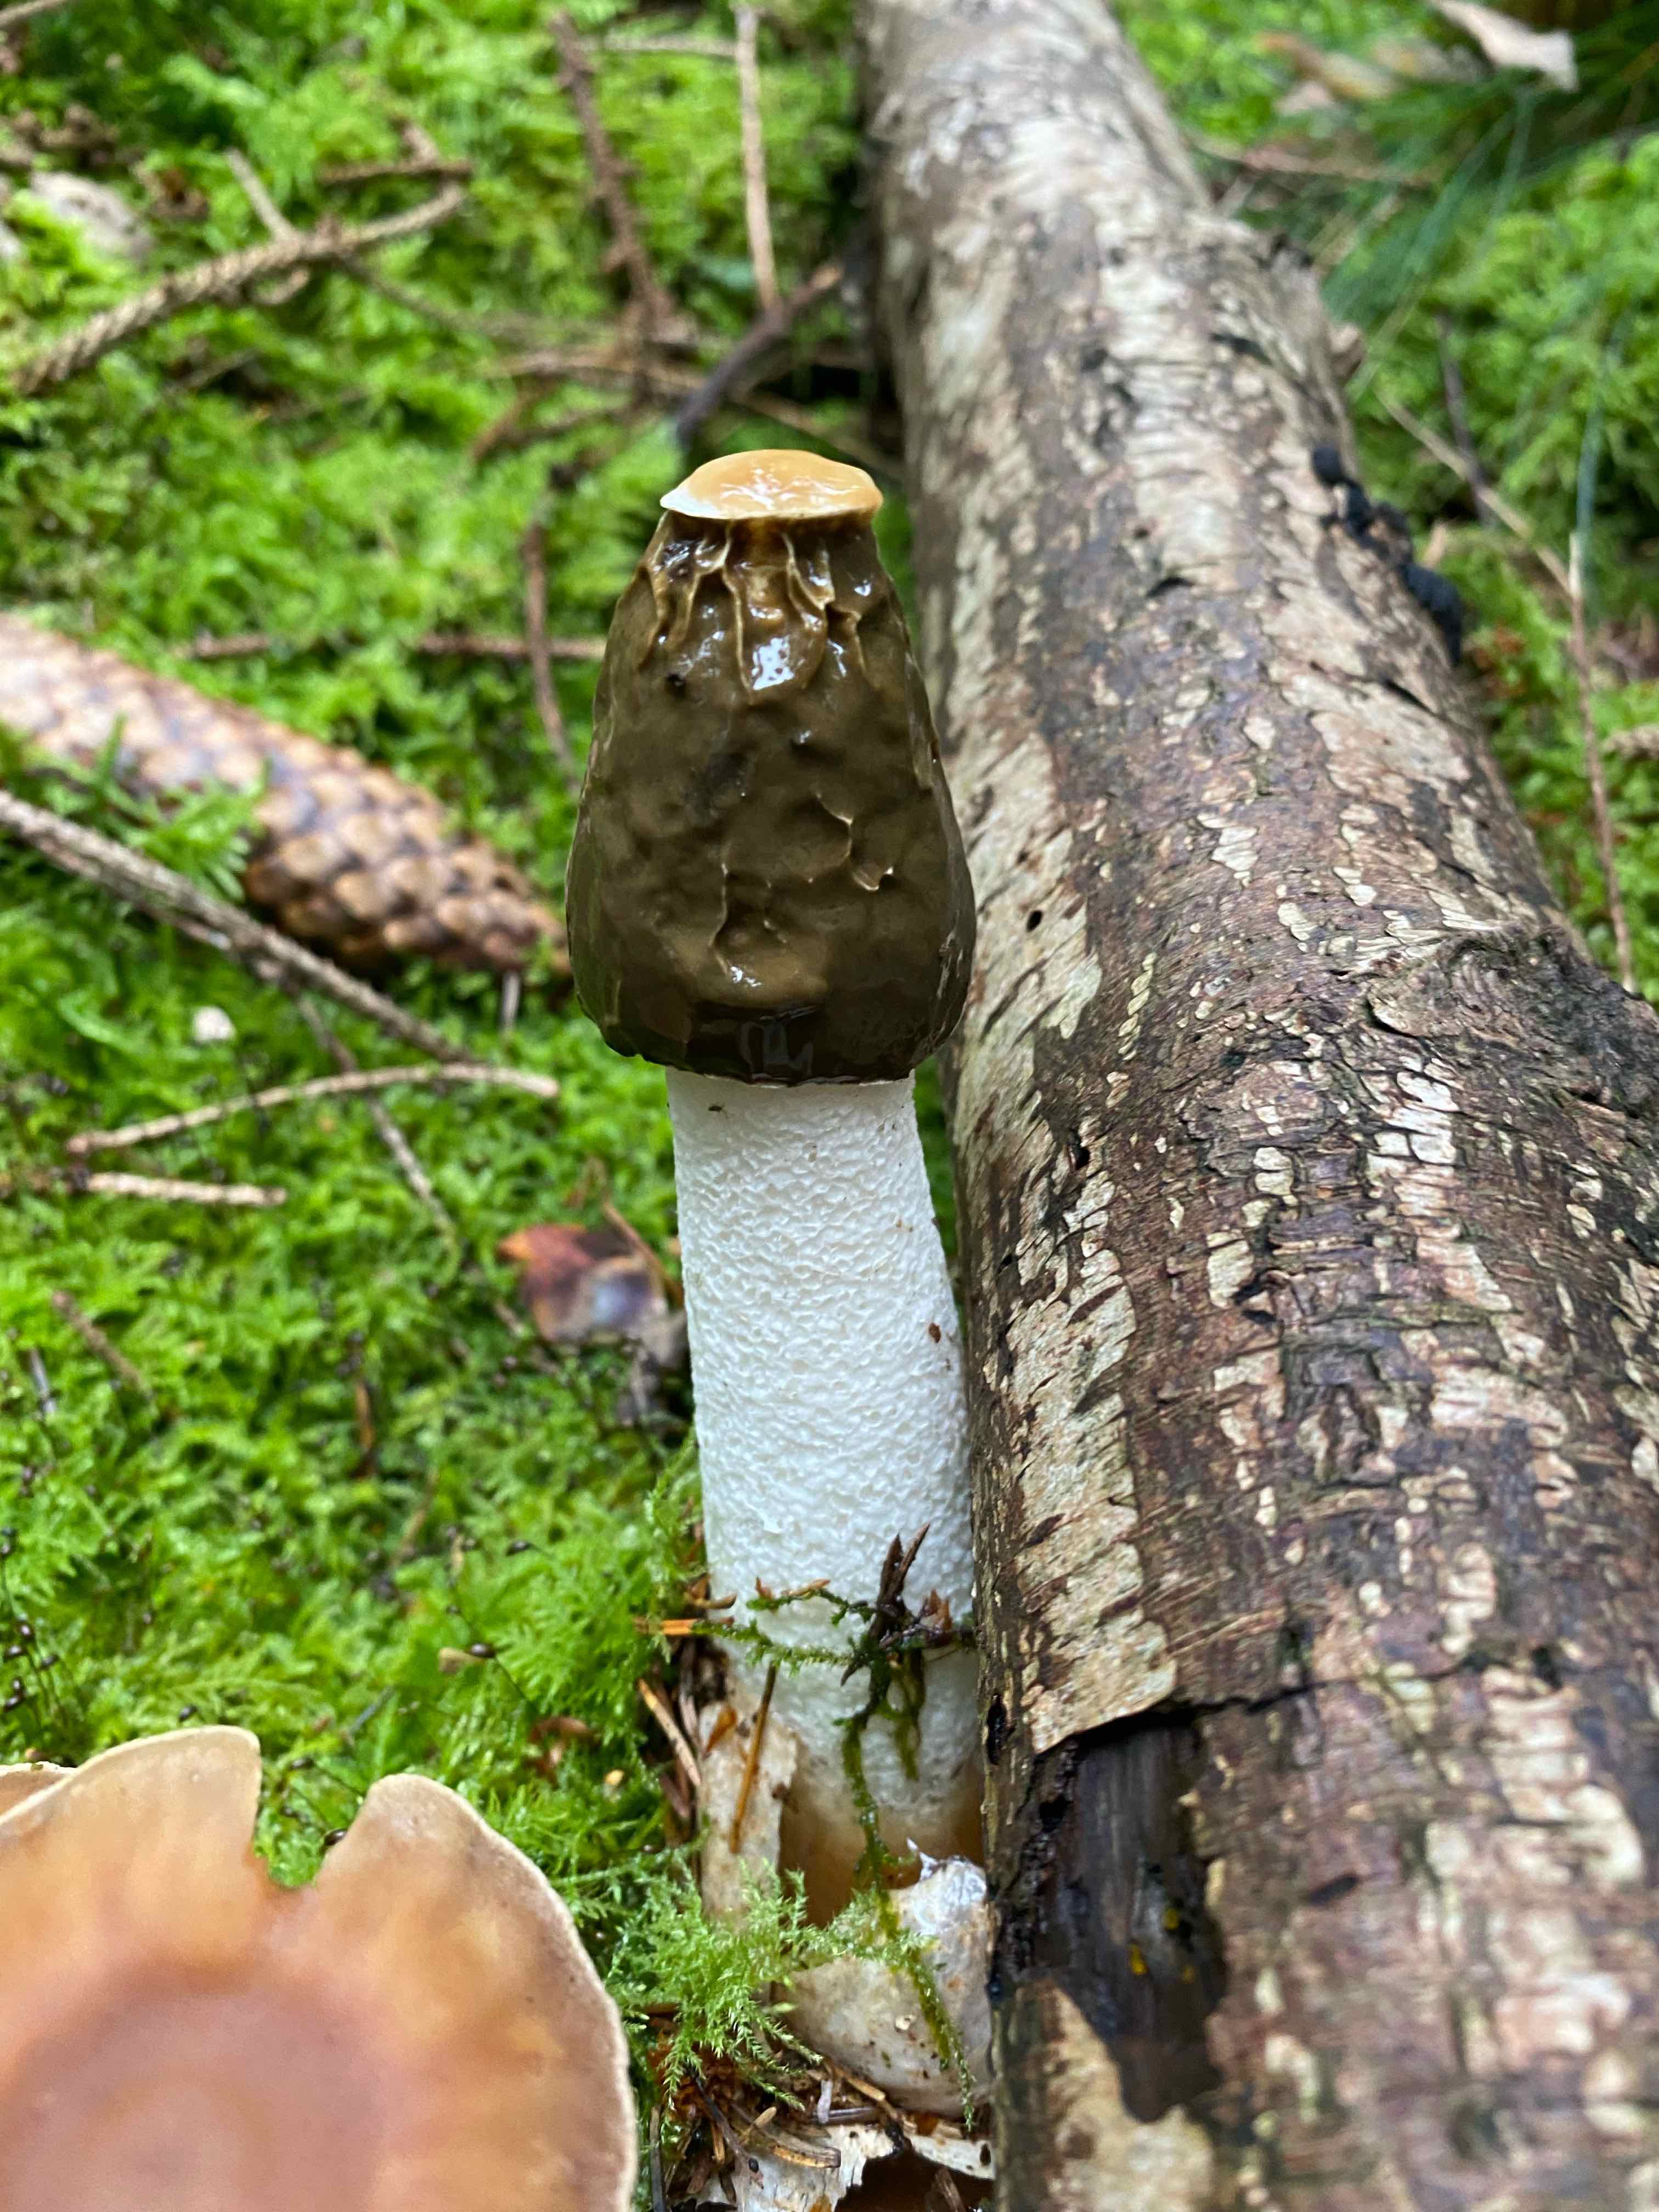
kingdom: Fungi
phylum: Basidiomycota
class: Agaricomycetes
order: Phallales
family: Phallaceae
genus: Phallus
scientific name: Phallus impudicus
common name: almindelig stinksvamp
